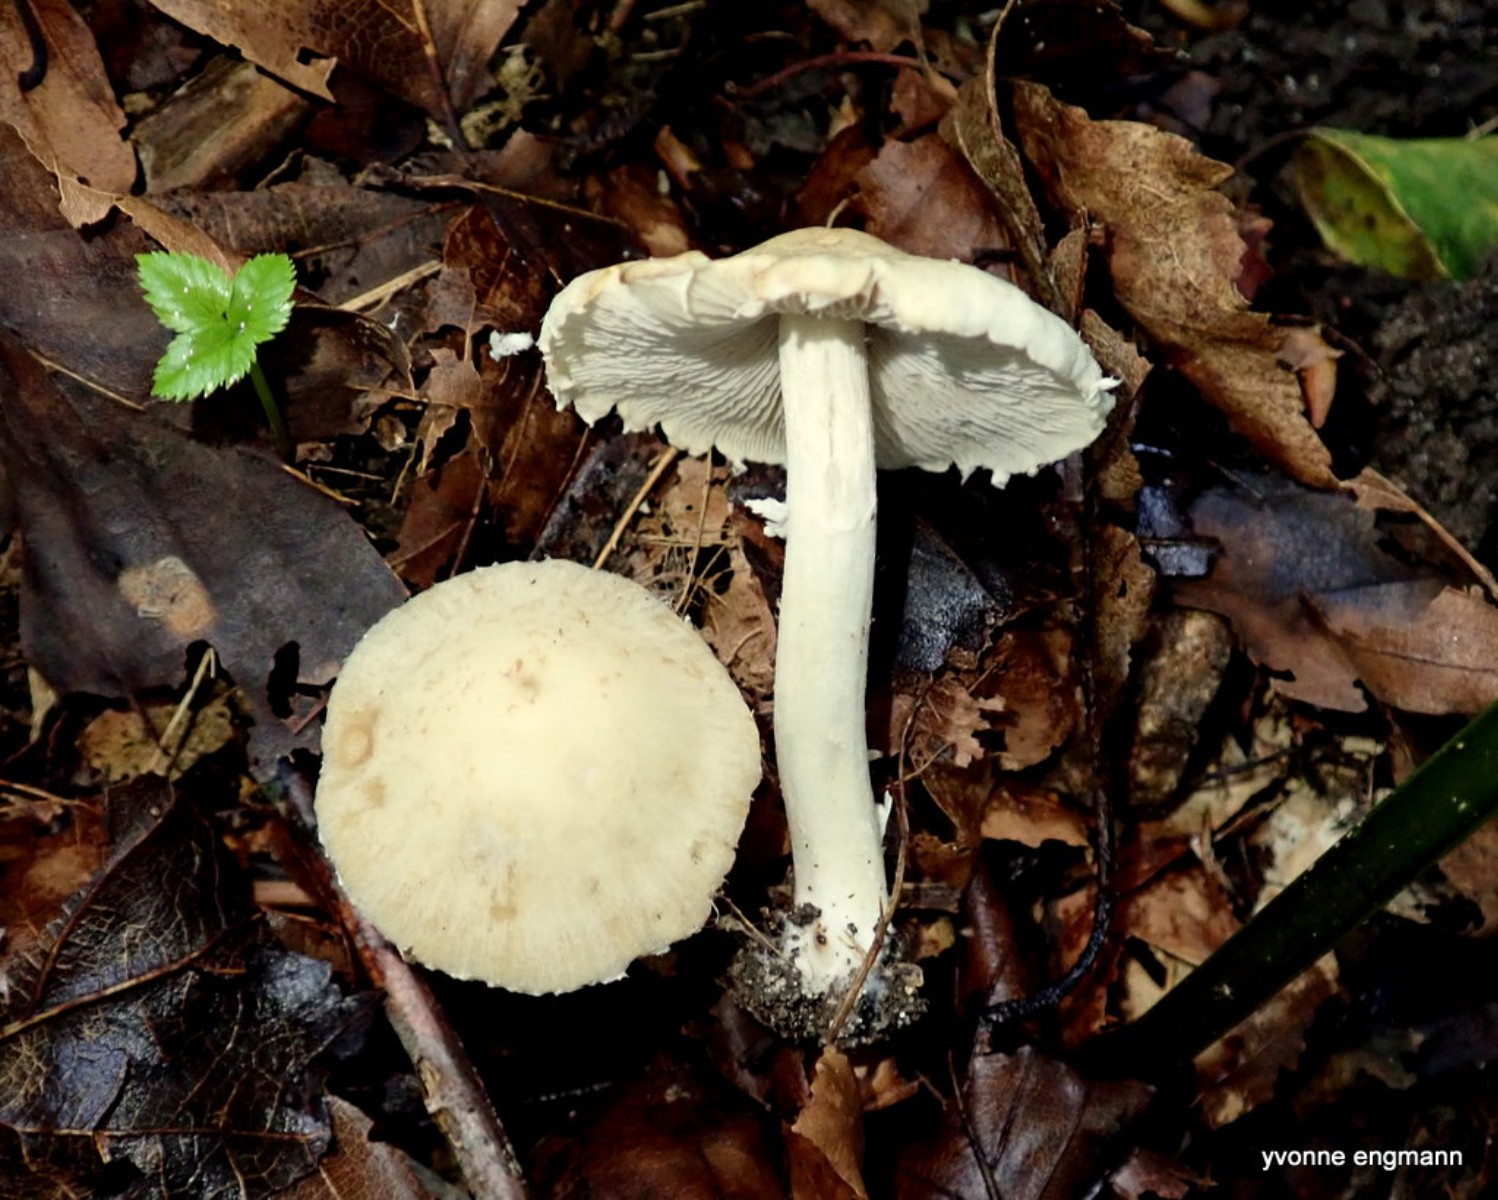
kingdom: Fungi
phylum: Basidiomycota
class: Agaricomycetes
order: Agaricales
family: Psathyrellaceae
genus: Candolleomyces
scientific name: Candolleomyces candolleanus
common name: Candolles mørkhat
